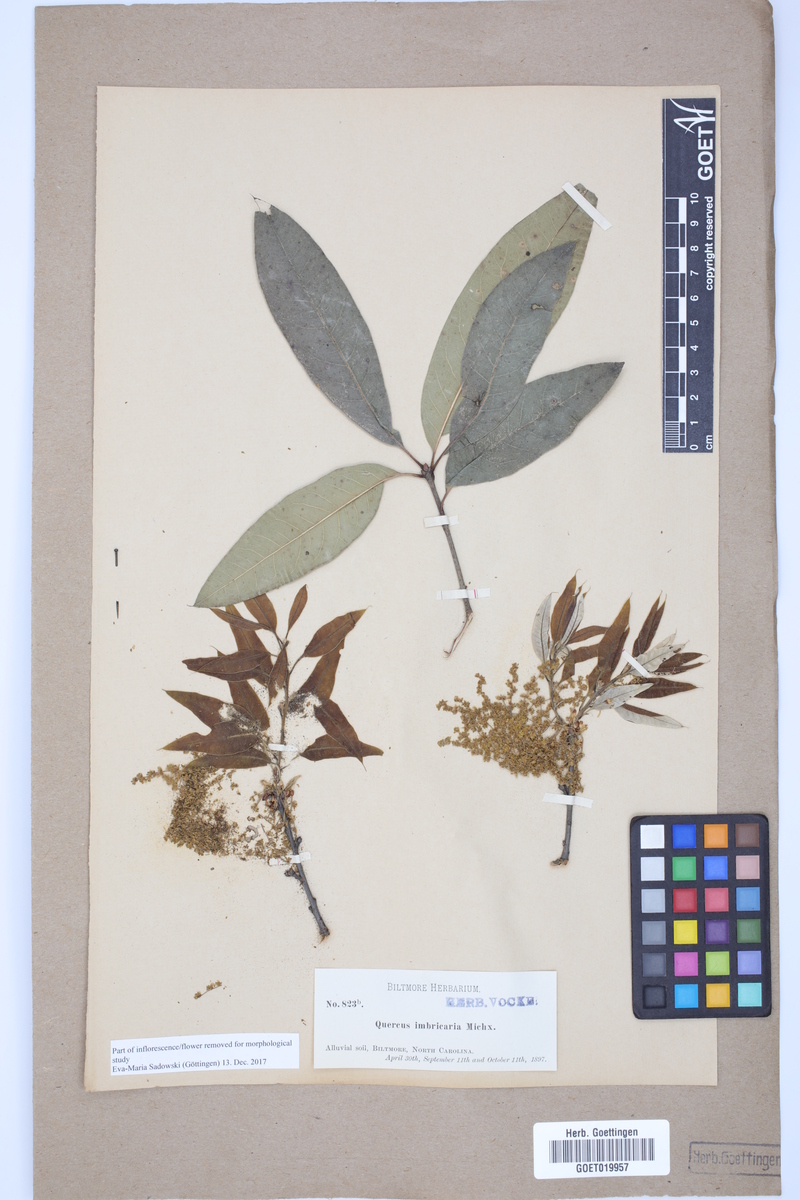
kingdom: Plantae
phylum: Tracheophyta
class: Magnoliopsida
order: Fagales
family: Fagaceae
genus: Quercus
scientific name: Quercus imbricaria
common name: Shingle oak
